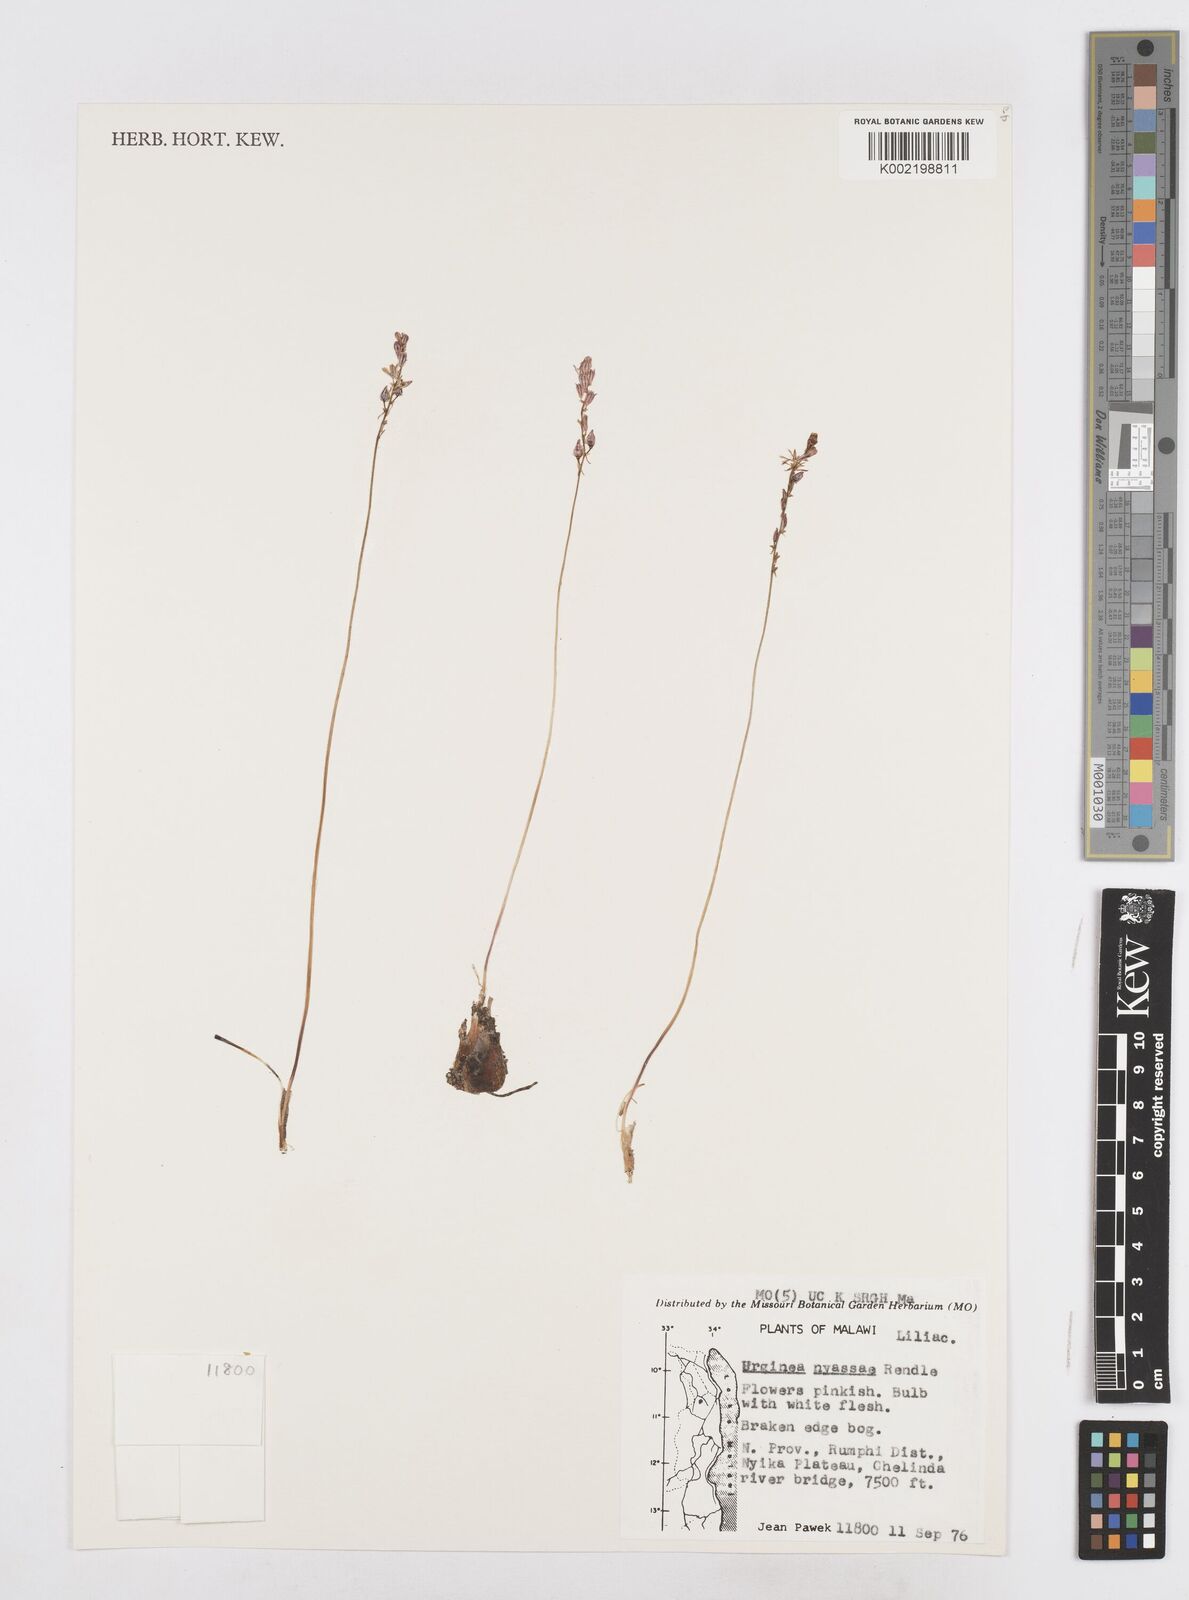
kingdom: Plantae
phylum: Tracheophyta
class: Liliopsida
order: Asparagales
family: Asparagaceae
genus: Drimia
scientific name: Drimia
